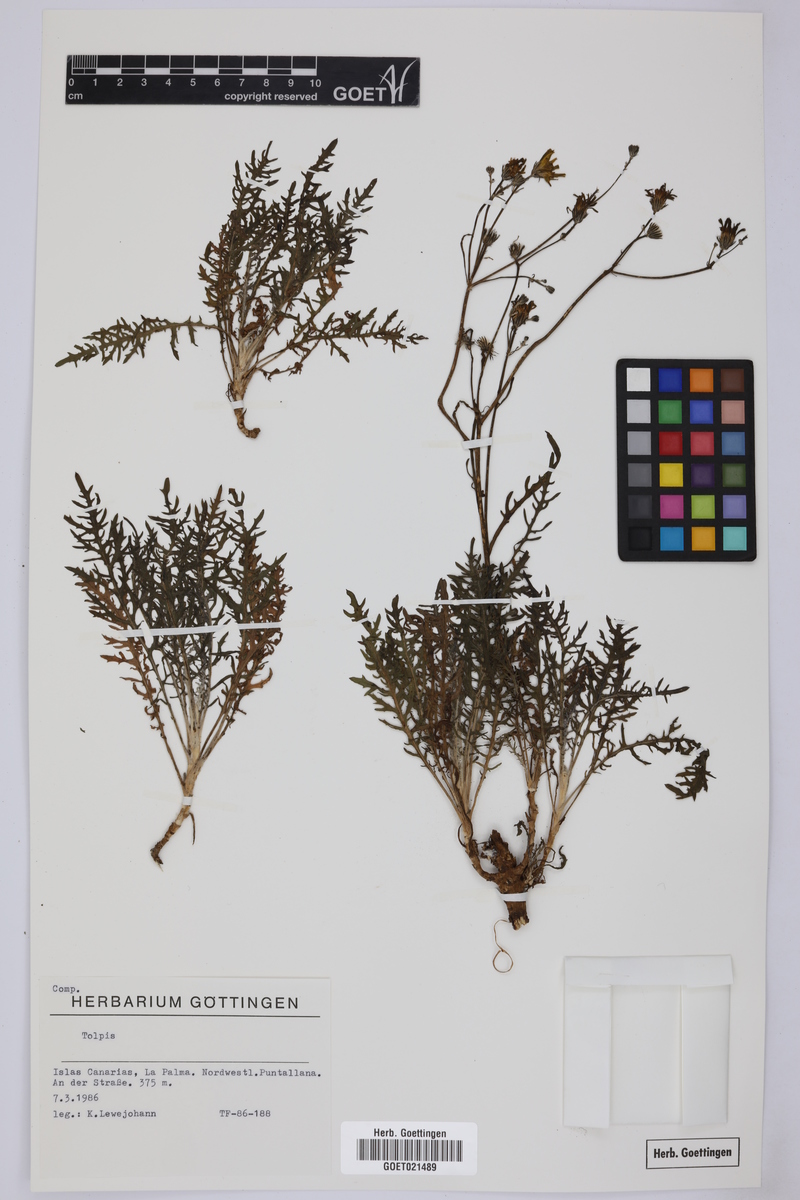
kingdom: Plantae
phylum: Tracheophyta
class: Magnoliopsida
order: Asterales
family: Asteraceae
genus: Tolpis
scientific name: Tolpis
